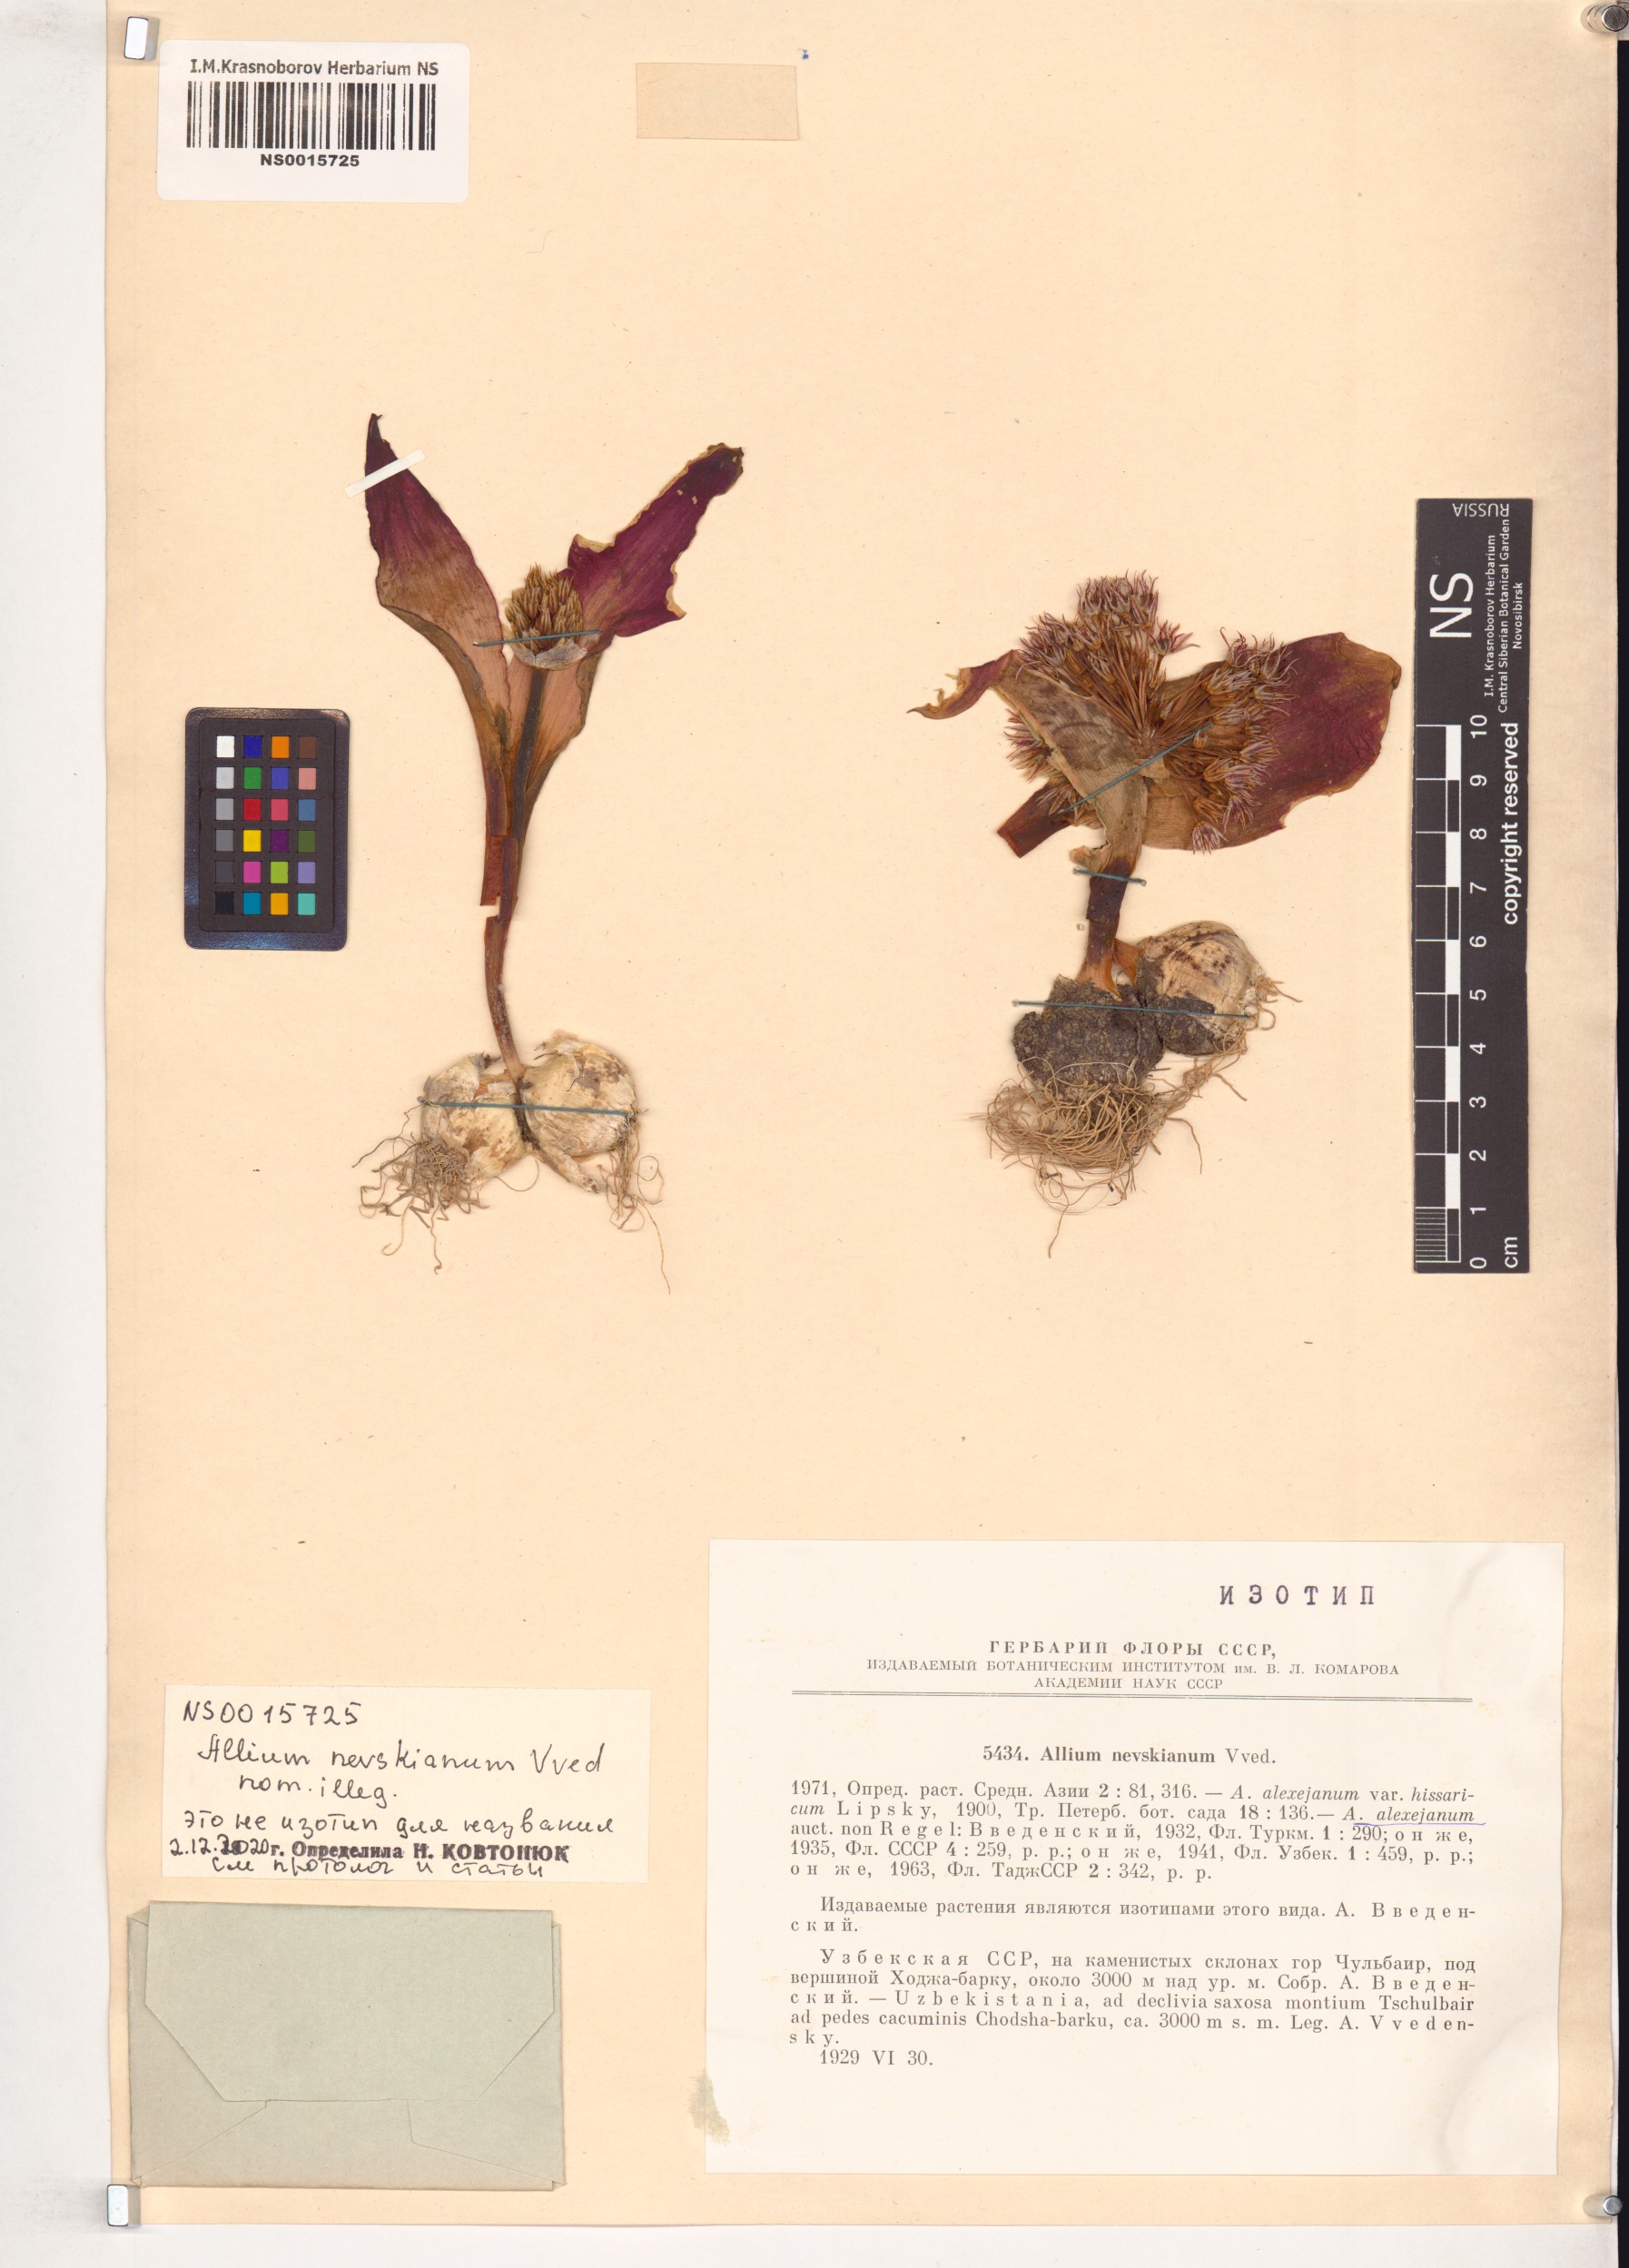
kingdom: Plantae
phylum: Tracheophyta
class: Liliopsida
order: Asparagales
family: Amaryllidaceae
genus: Allium
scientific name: Allium nevskianum
